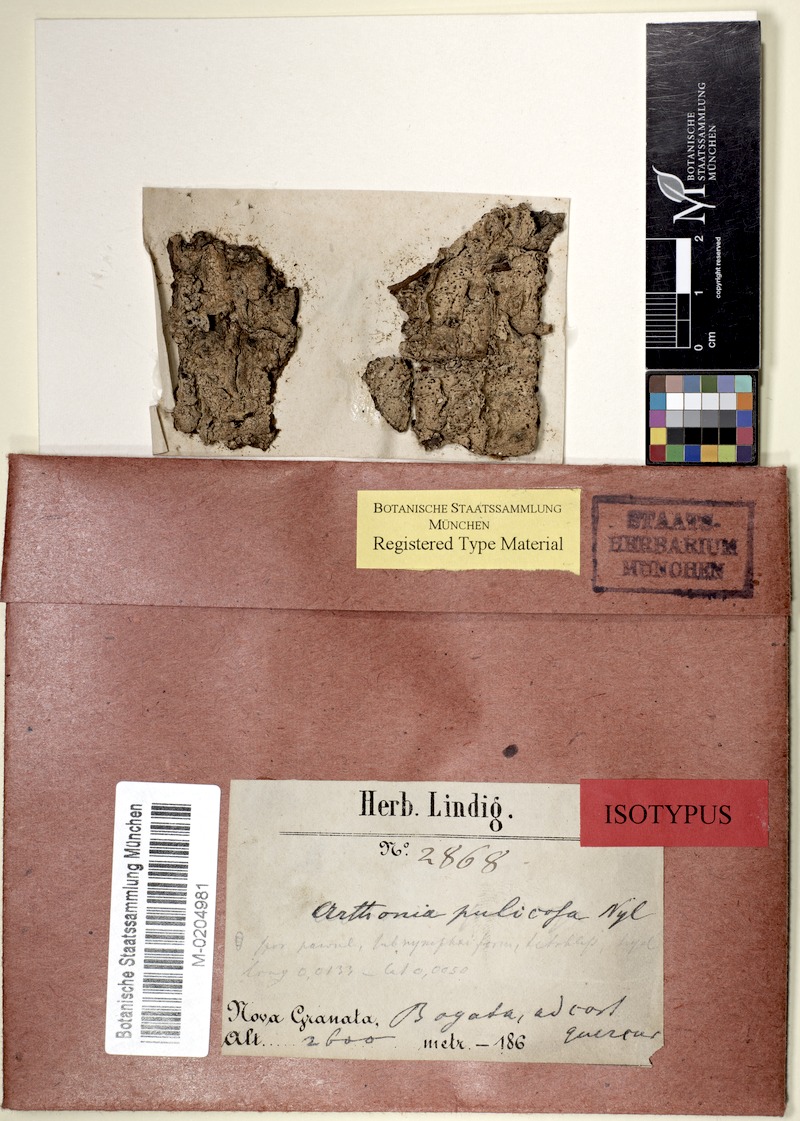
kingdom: Fungi
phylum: Ascomycota
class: Arthoniomycetes
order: Arthoniales
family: Arthoniaceae
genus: Arthonia
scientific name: Arthonia pulicosa
